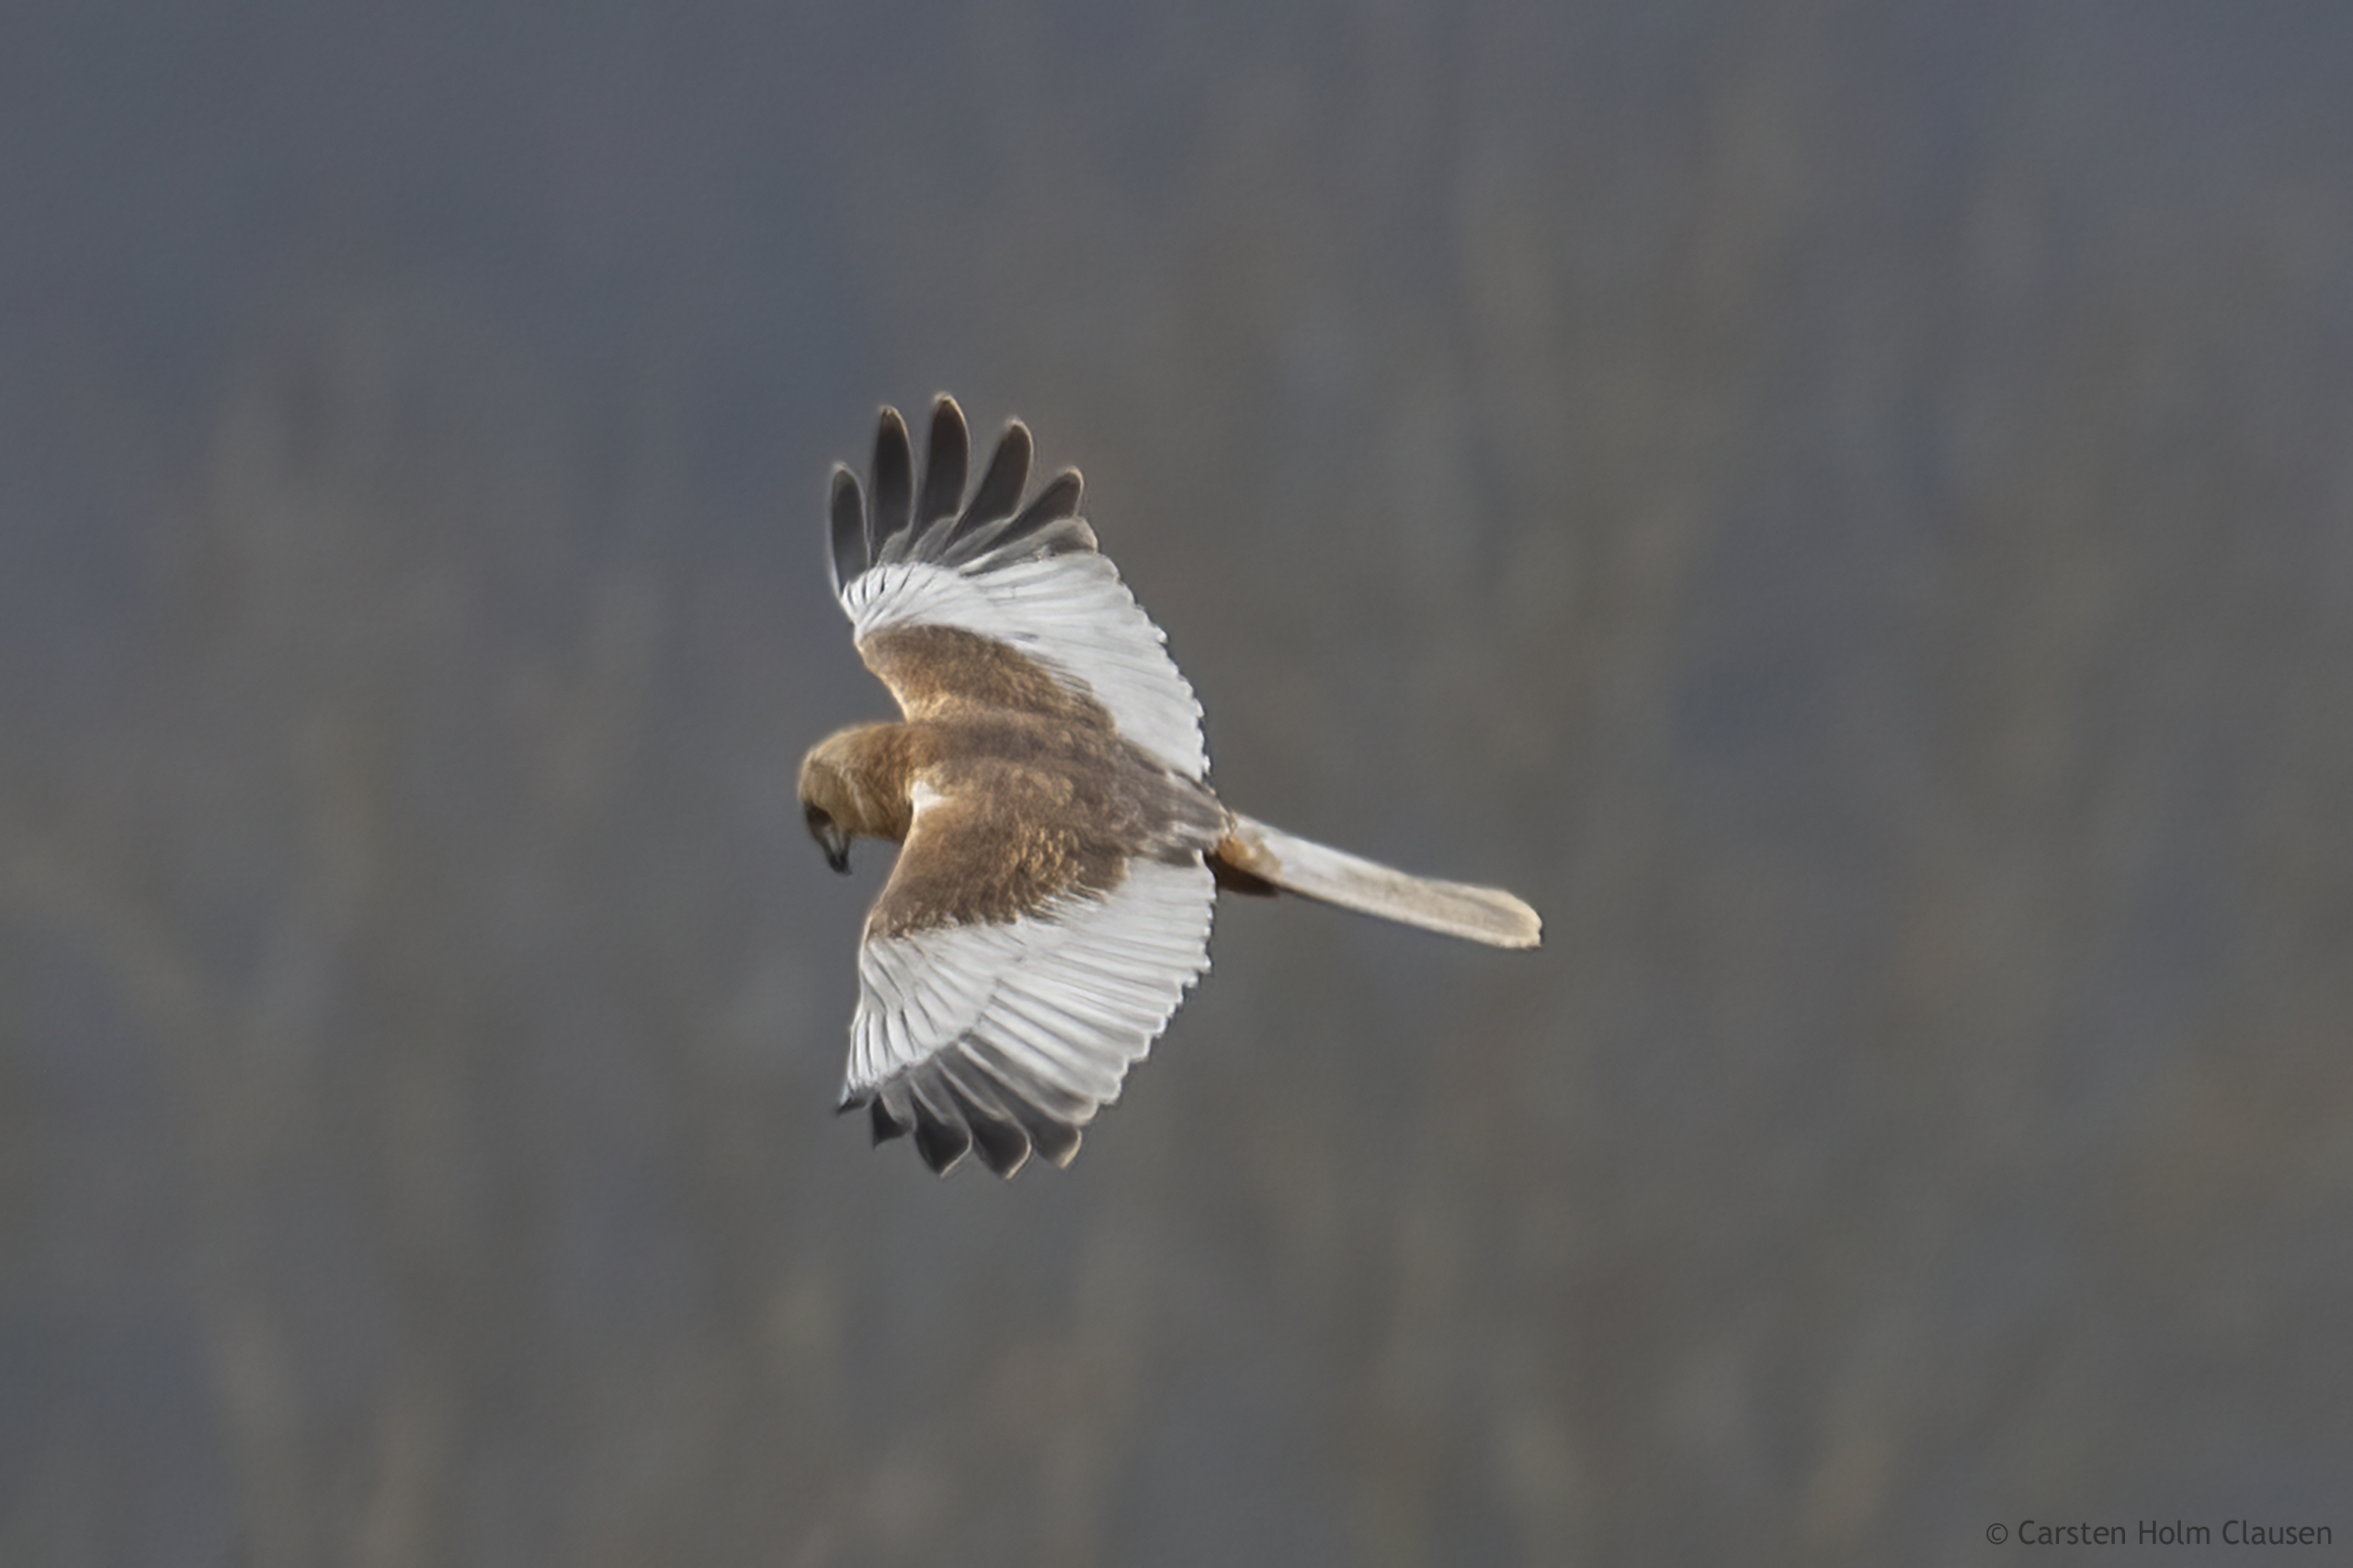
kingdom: Animalia
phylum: Chordata
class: Aves
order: Accipitriformes
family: Accipitridae
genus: Circus
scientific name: Circus aeruginosus
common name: Rørhøg
